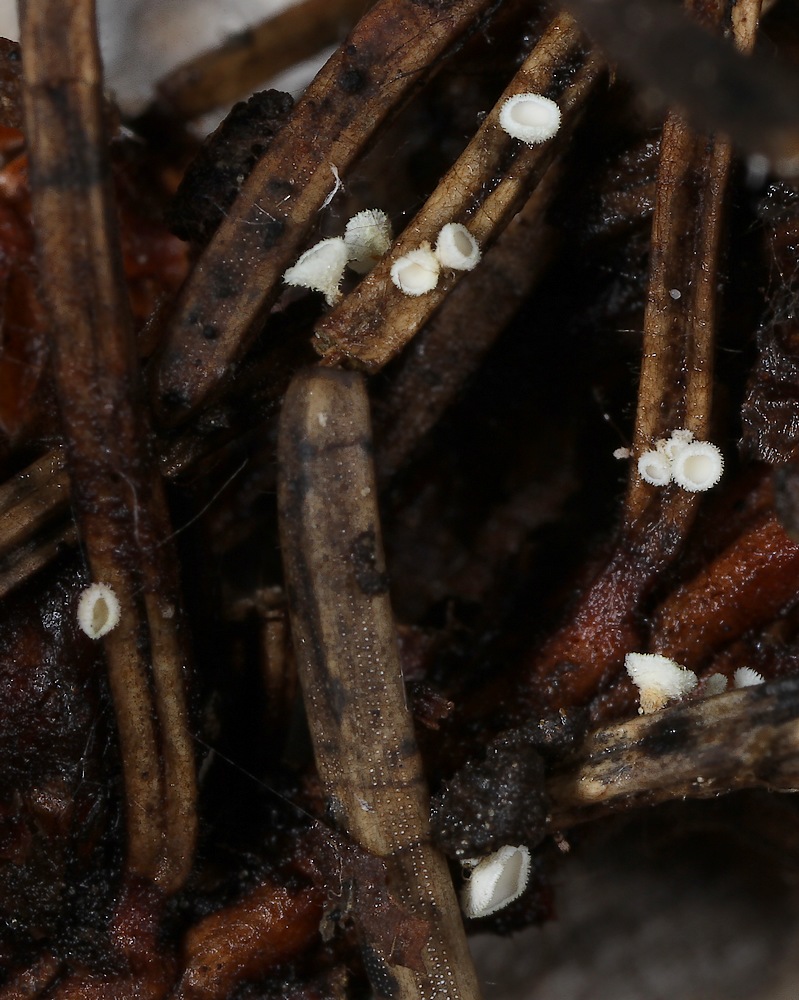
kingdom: Fungi
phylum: Ascomycota
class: Leotiomycetes
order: Helotiales
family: Lachnaceae
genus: Lachnellula
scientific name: Lachnellula pulverulenta
